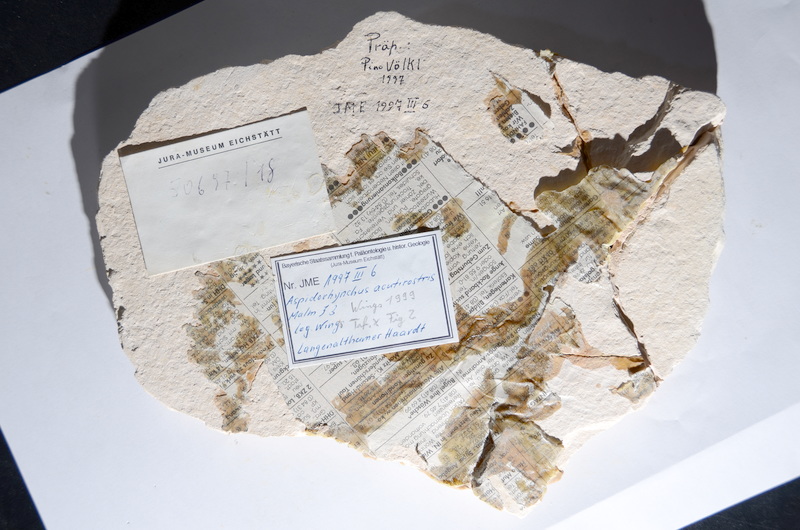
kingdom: Animalia
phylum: Chordata
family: Aspidorhynchidae
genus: Aspidorhynchus
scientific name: Aspidorhynchus acutirostris
